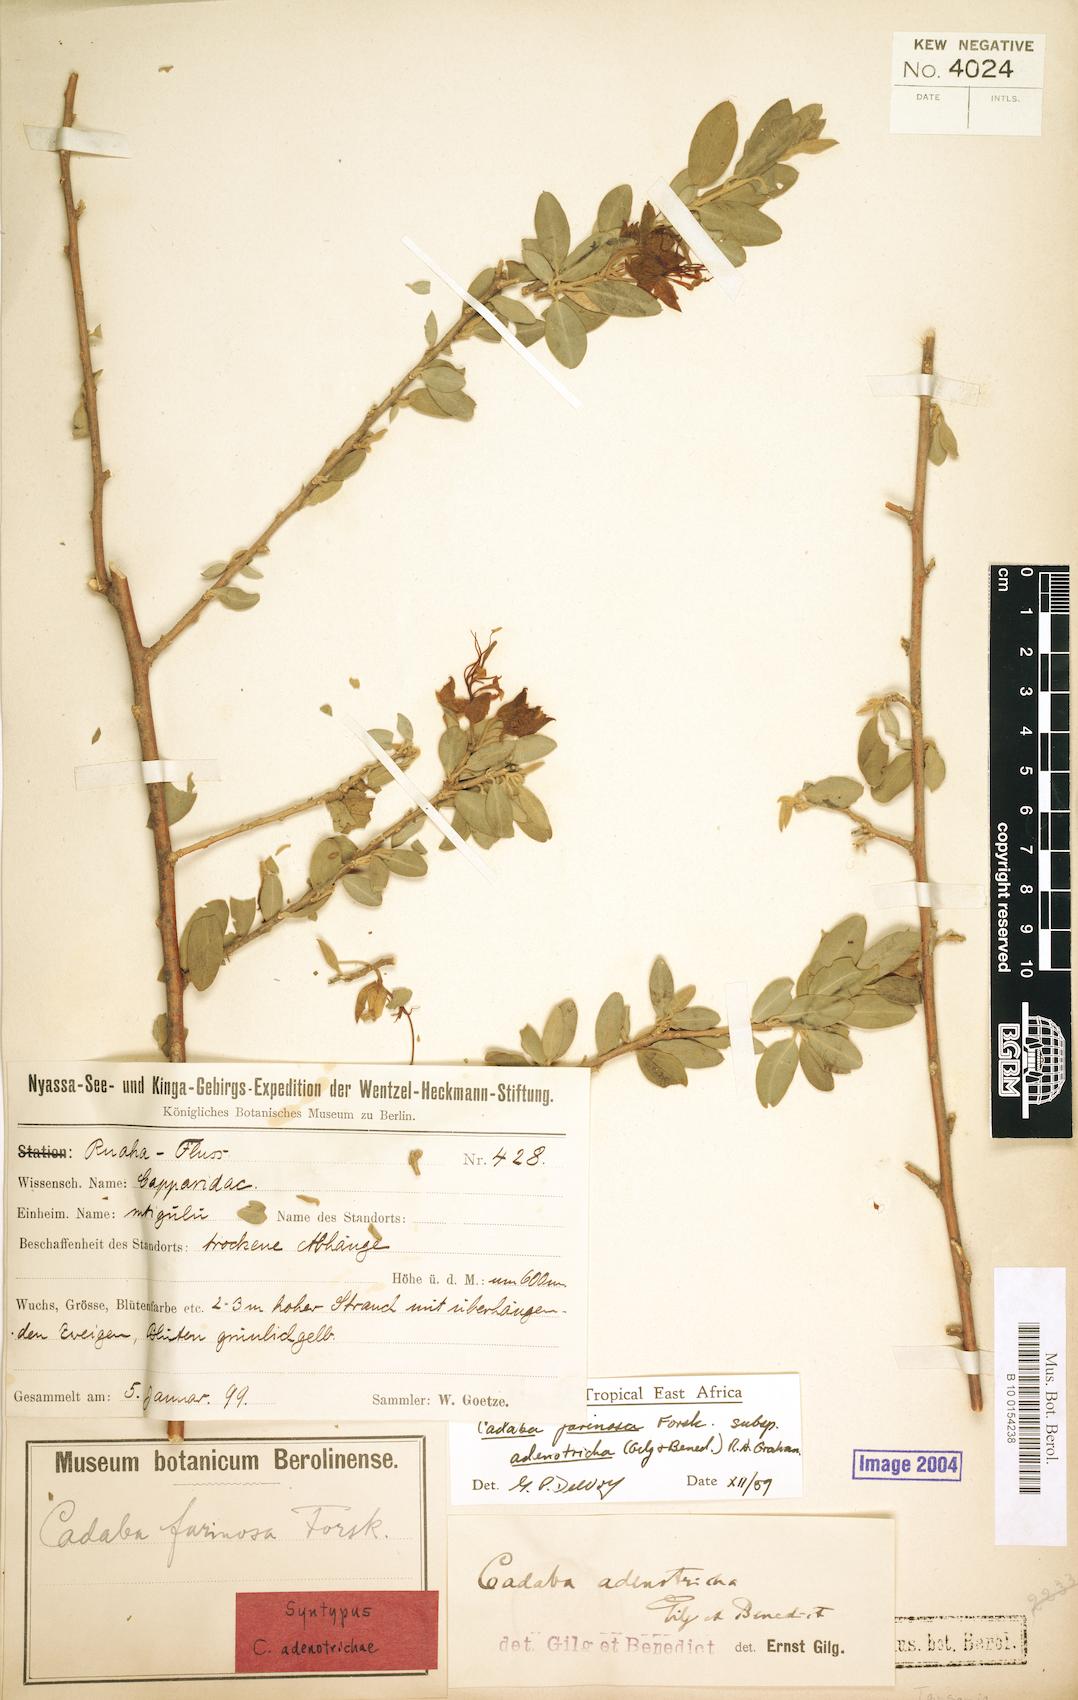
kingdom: Plantae
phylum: Tracheophyta
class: Magnoliopsida
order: Brassicales
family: Capparaceae
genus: Cadaba
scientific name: Cadaba farinosa
